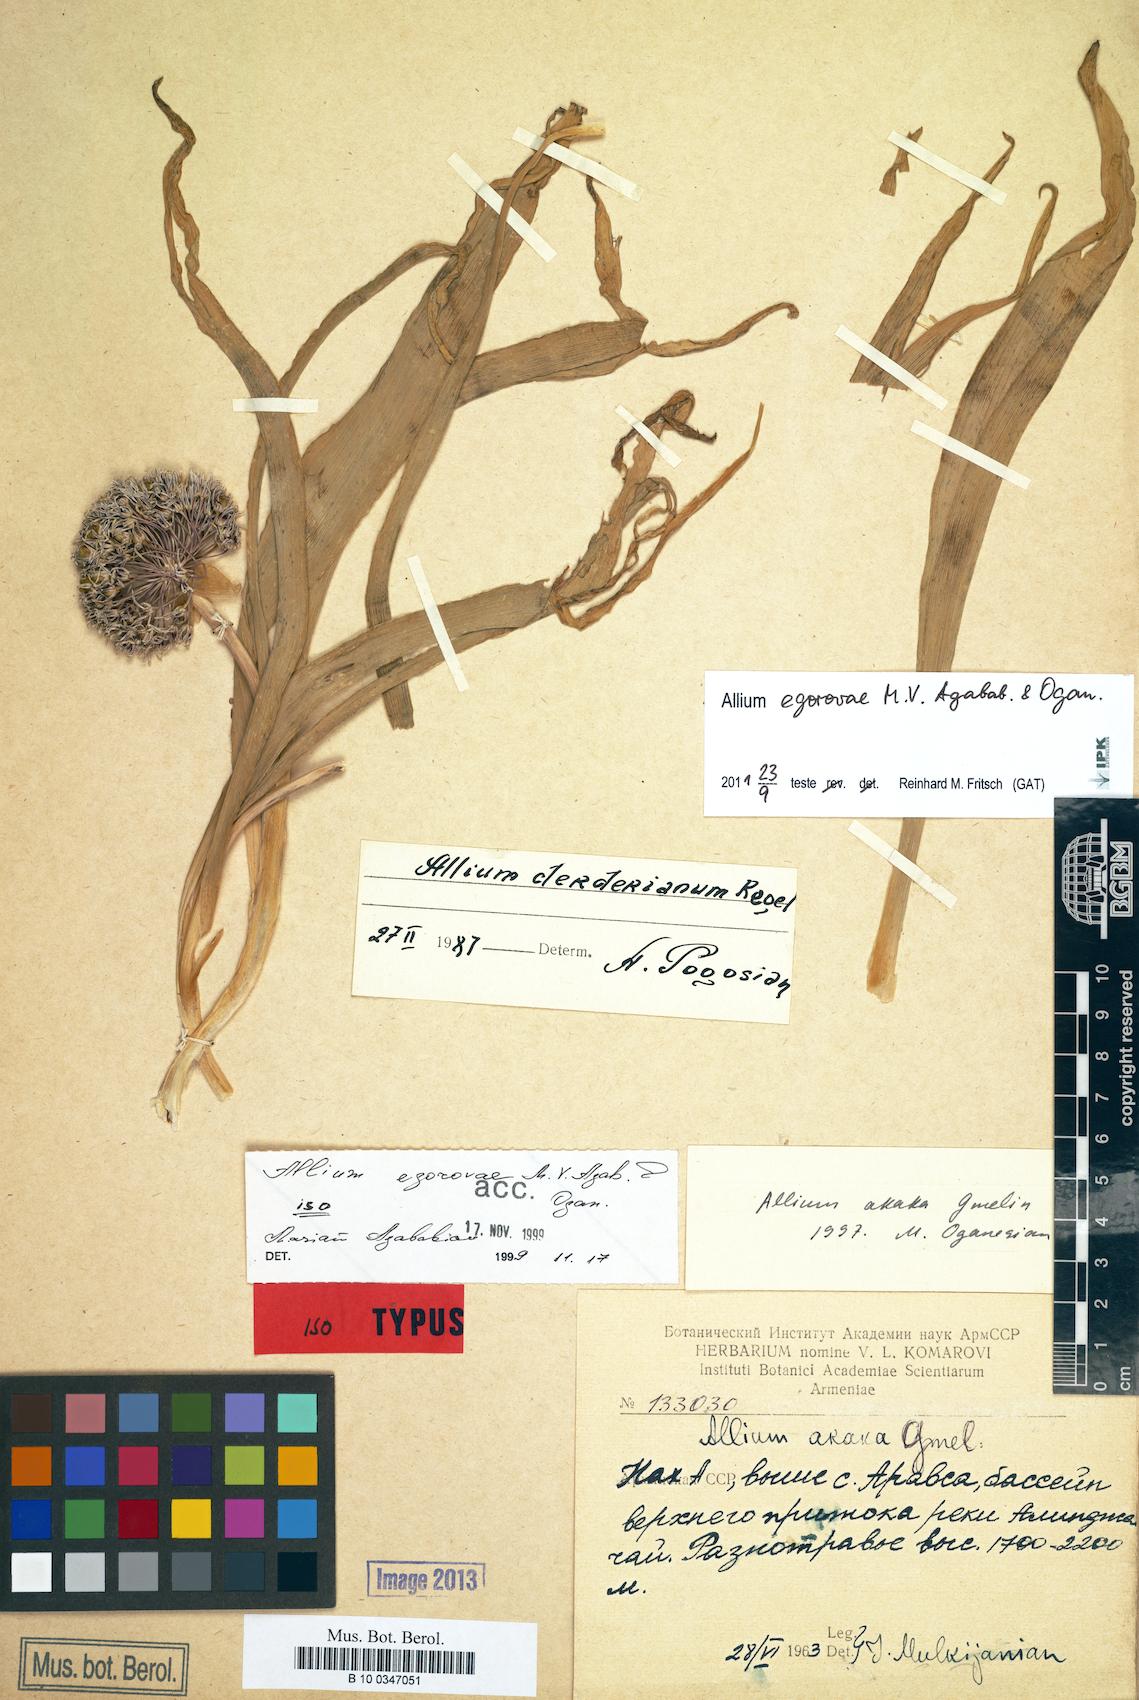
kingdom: Plantae
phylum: Tracheophyta
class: Liliopsida
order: Asparagales
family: Amaryllidaceae
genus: Allium
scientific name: Allium egorovae
